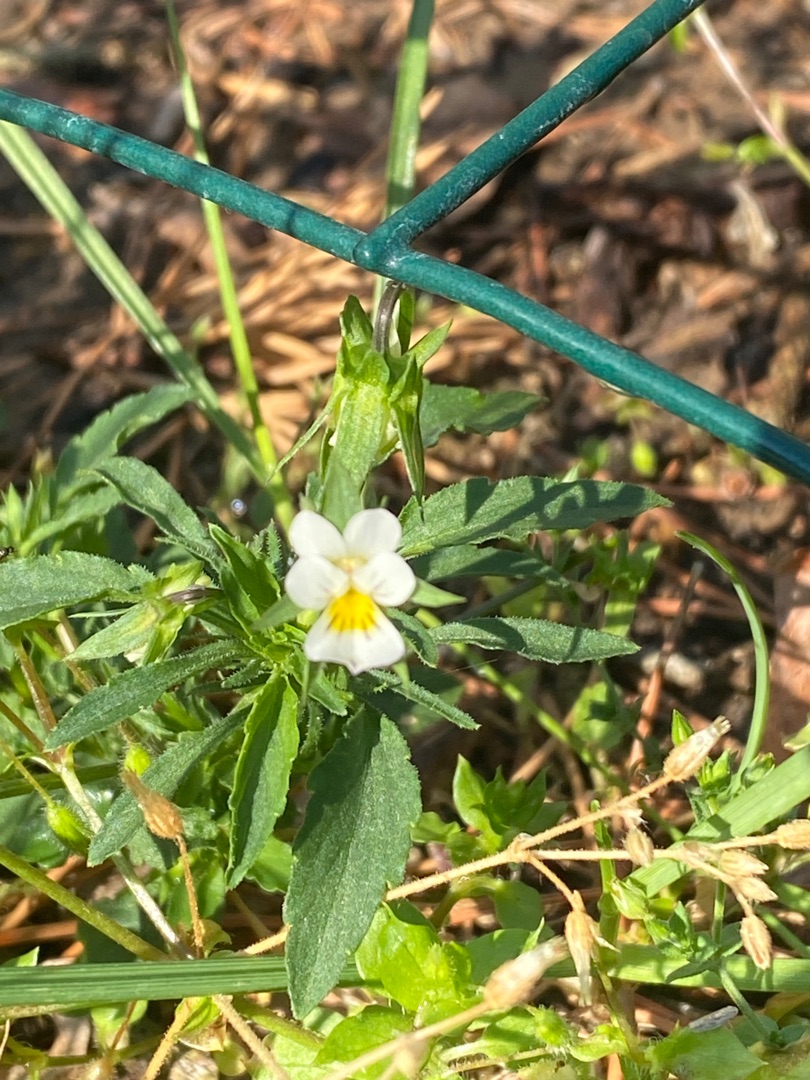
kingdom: Plantae
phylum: Tracheophyta
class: Magnoliopsida
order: Malpighiales
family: Violaceae
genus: Viola
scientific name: Viola arvensis
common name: Ager-stedmoderblomst
